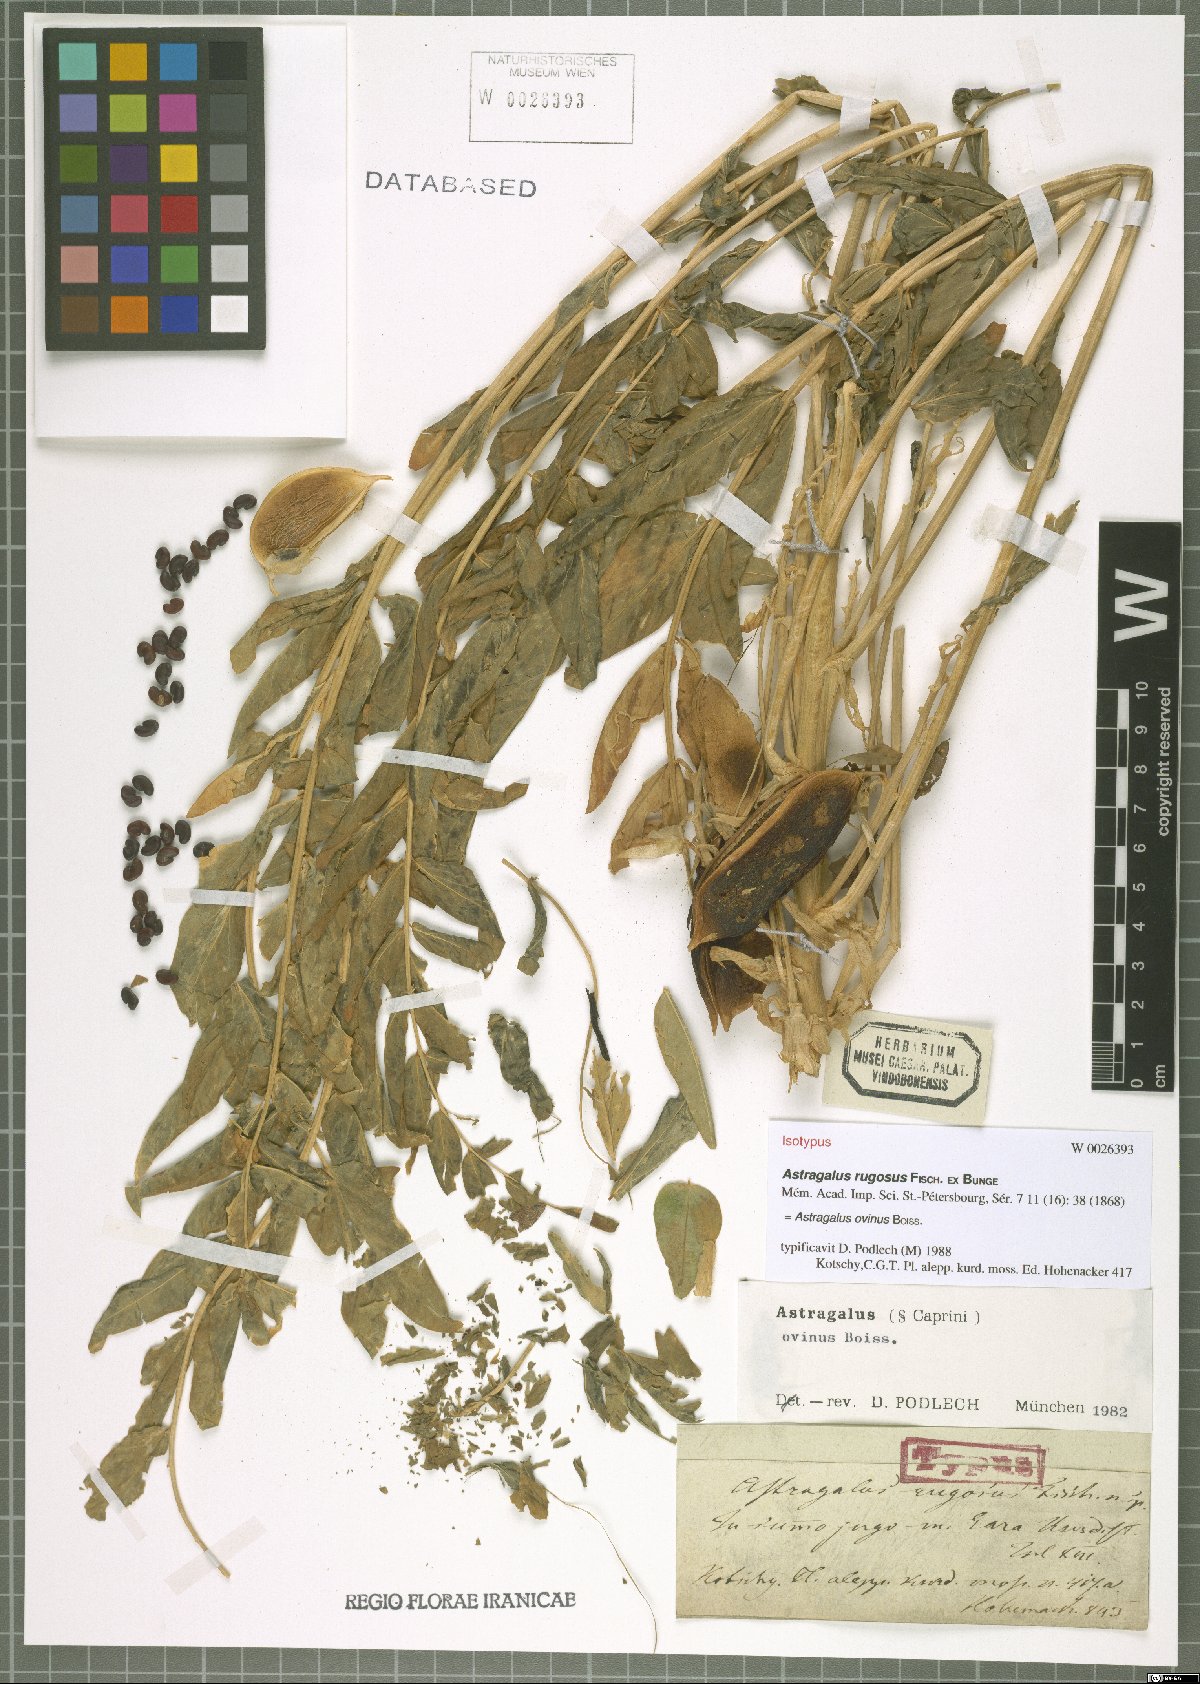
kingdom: Plantae
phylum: Tracheophyta
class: Magnoliopsida
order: Fabales
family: Fabaceae
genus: Astragalus
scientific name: Astragalus ovinus
